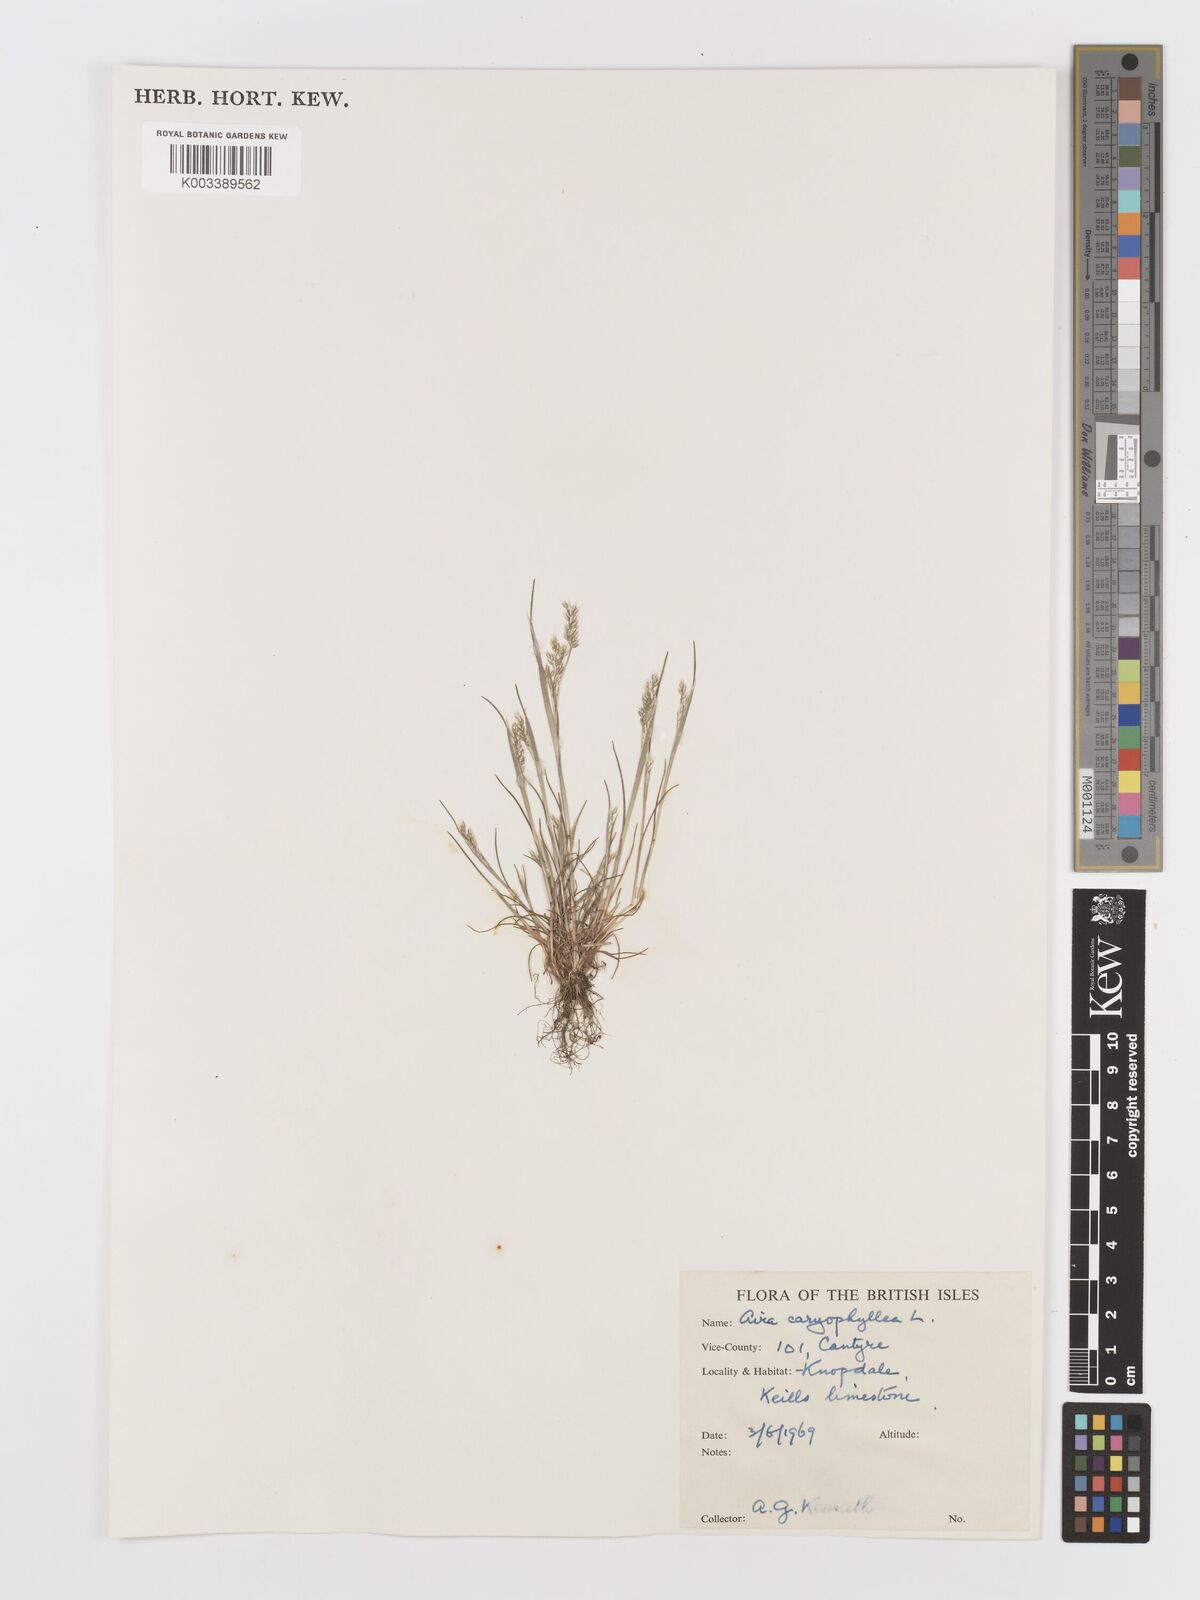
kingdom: Plantae
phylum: Tracheophyta
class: Liliopsida
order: Poales
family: Poaceae
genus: Aira
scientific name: Aira caryophyllea
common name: Silver hairgrass
